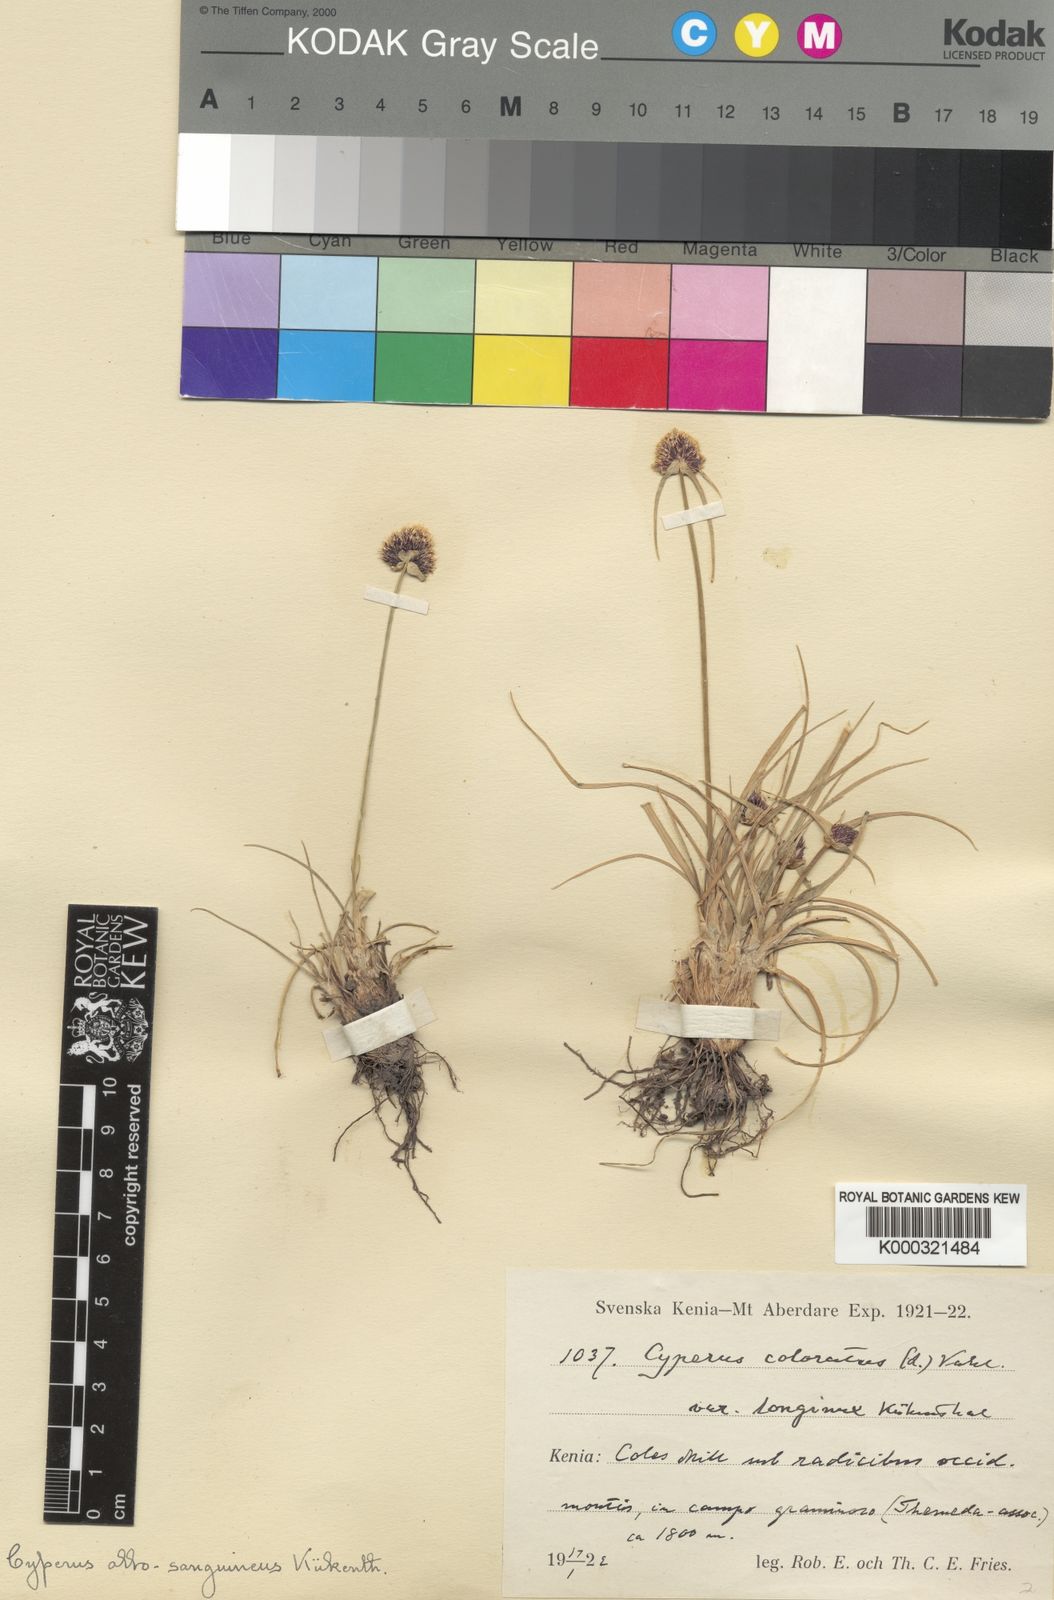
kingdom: Plantae
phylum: Tracheophyta
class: Liliopsida
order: Poales
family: Cyperaceae
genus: Cyperus
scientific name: Cyperus
